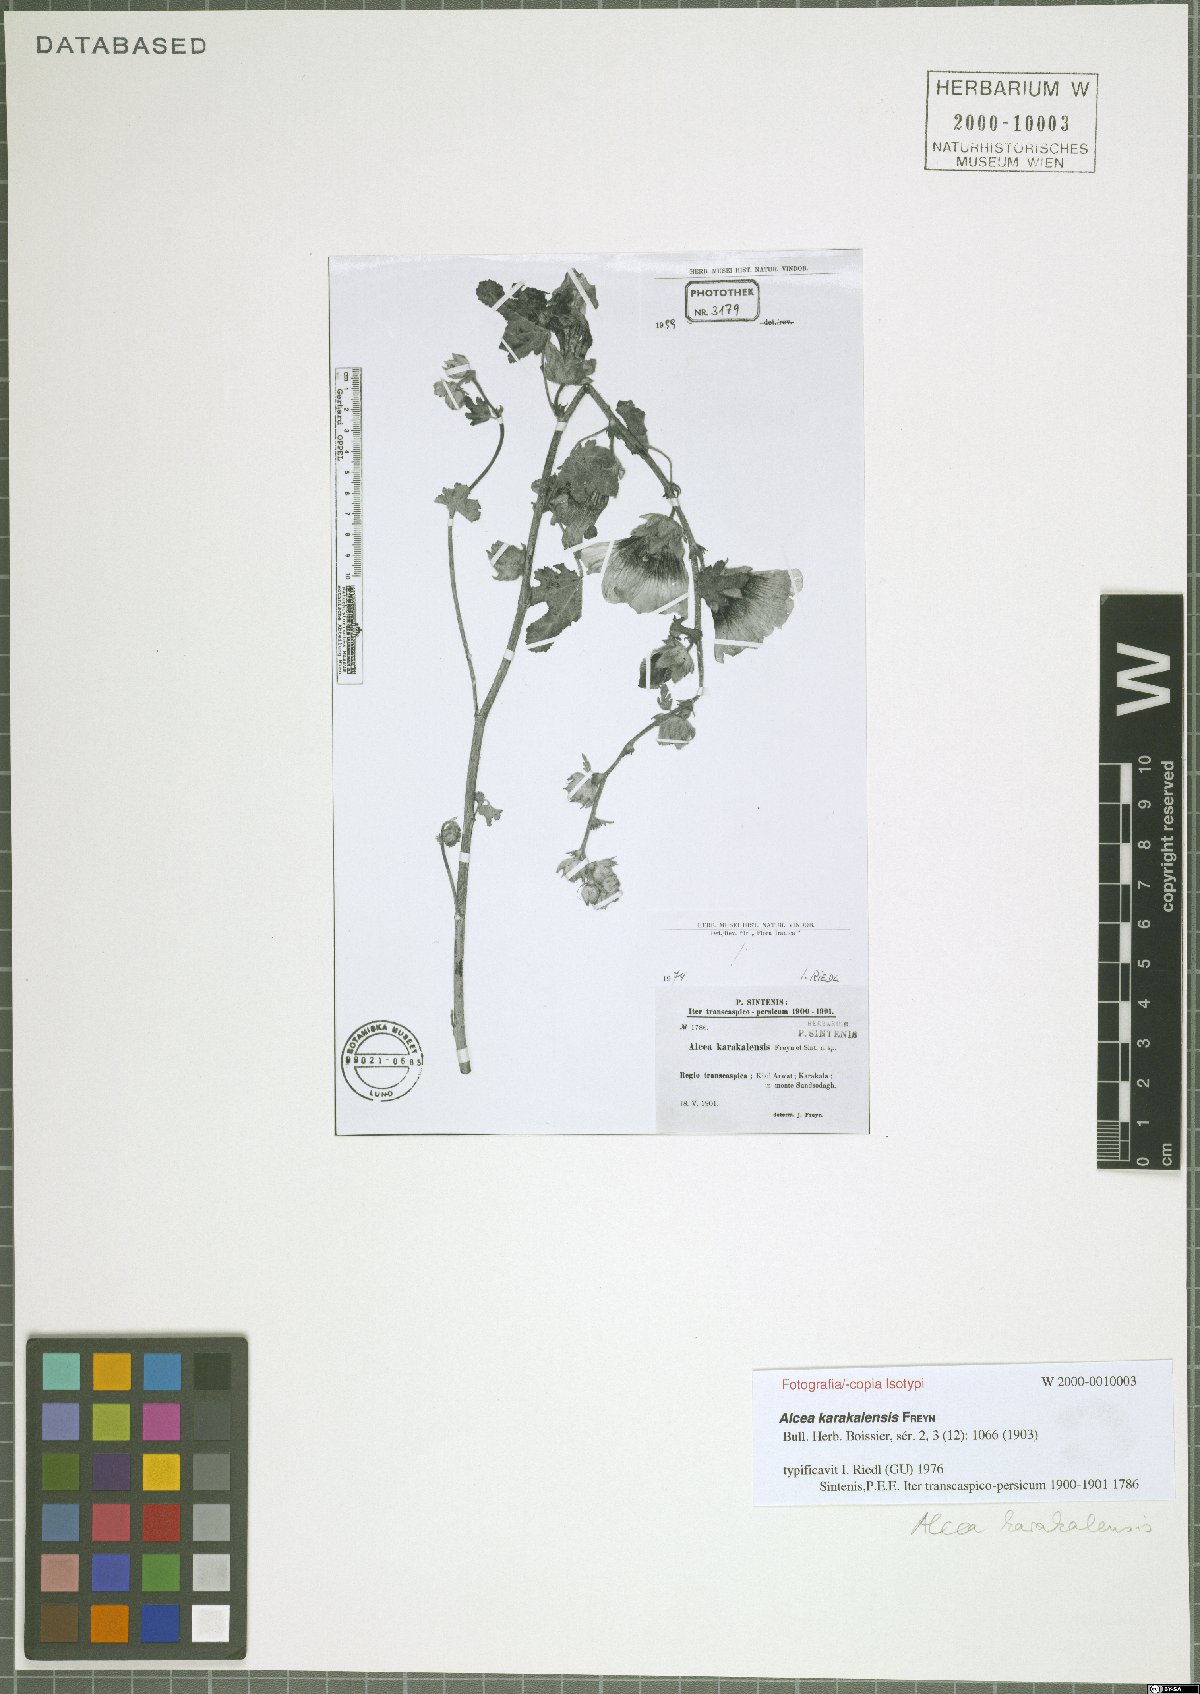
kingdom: Plantae
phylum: Tracheophyta
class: Magnoliopsida
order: Malvales
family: Malvaceae
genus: Alcea
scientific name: Alcea karakalensis
